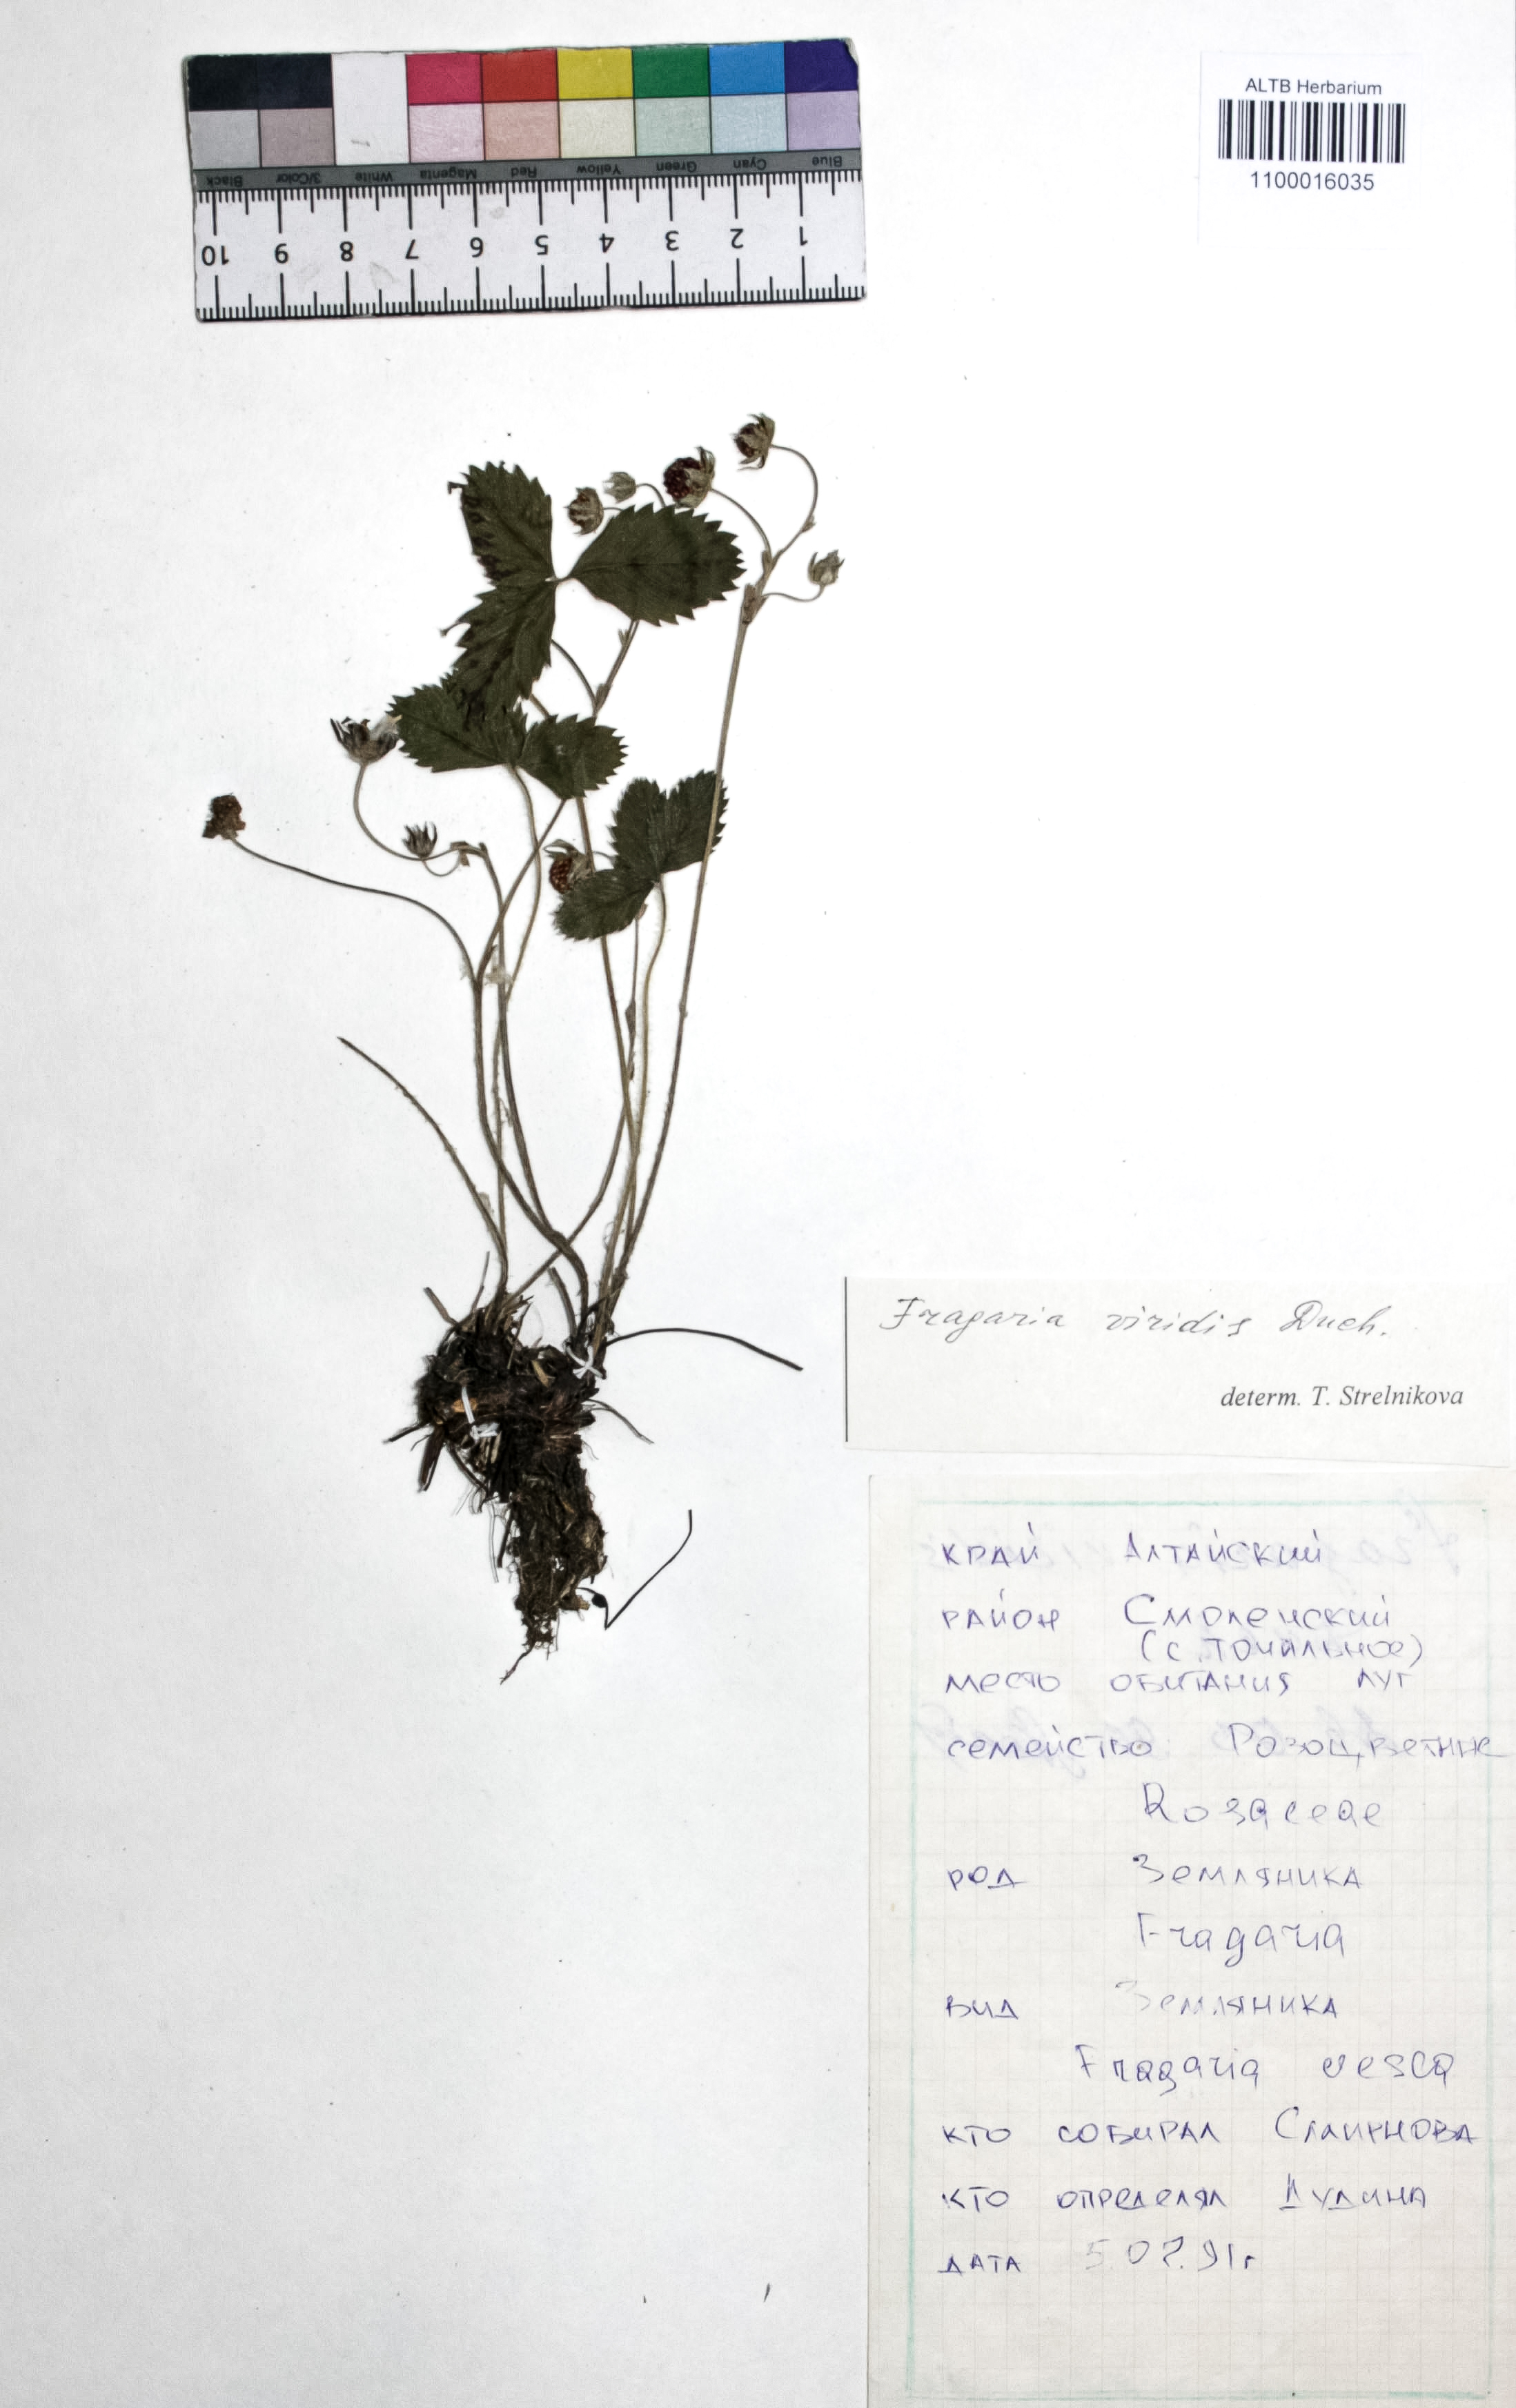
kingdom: Plantae
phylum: Tracheophyta
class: Magnoliopsida
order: Rosales
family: Rosaceae
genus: Fragaria
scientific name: Fragaria viridis
